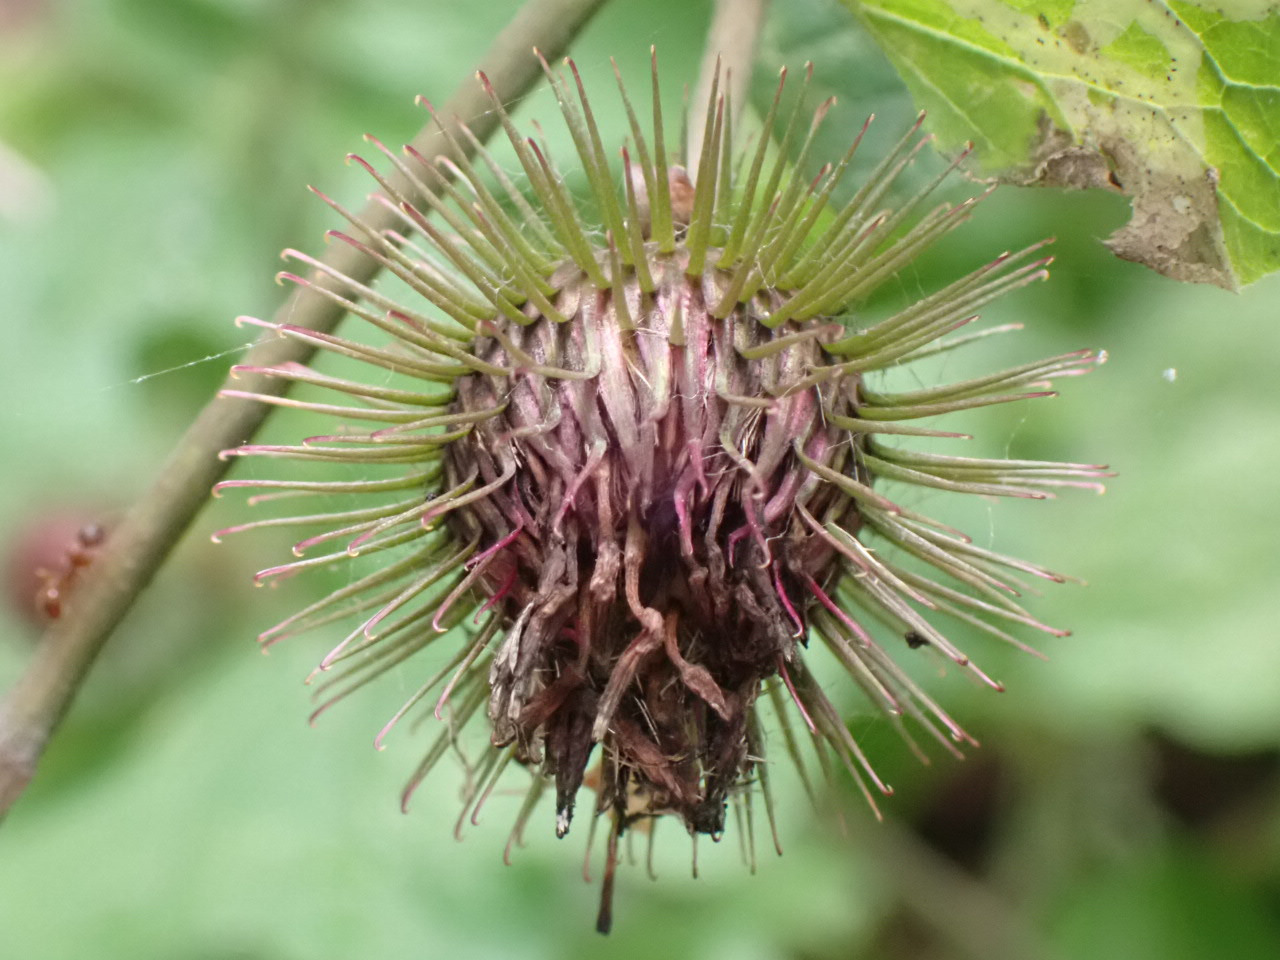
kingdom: Plantae
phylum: Tracheophyta
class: Magnoliopsida
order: Asterales
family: Asteraceae
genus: Arctium
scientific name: Arctium nemorosum
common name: Skov-burre
